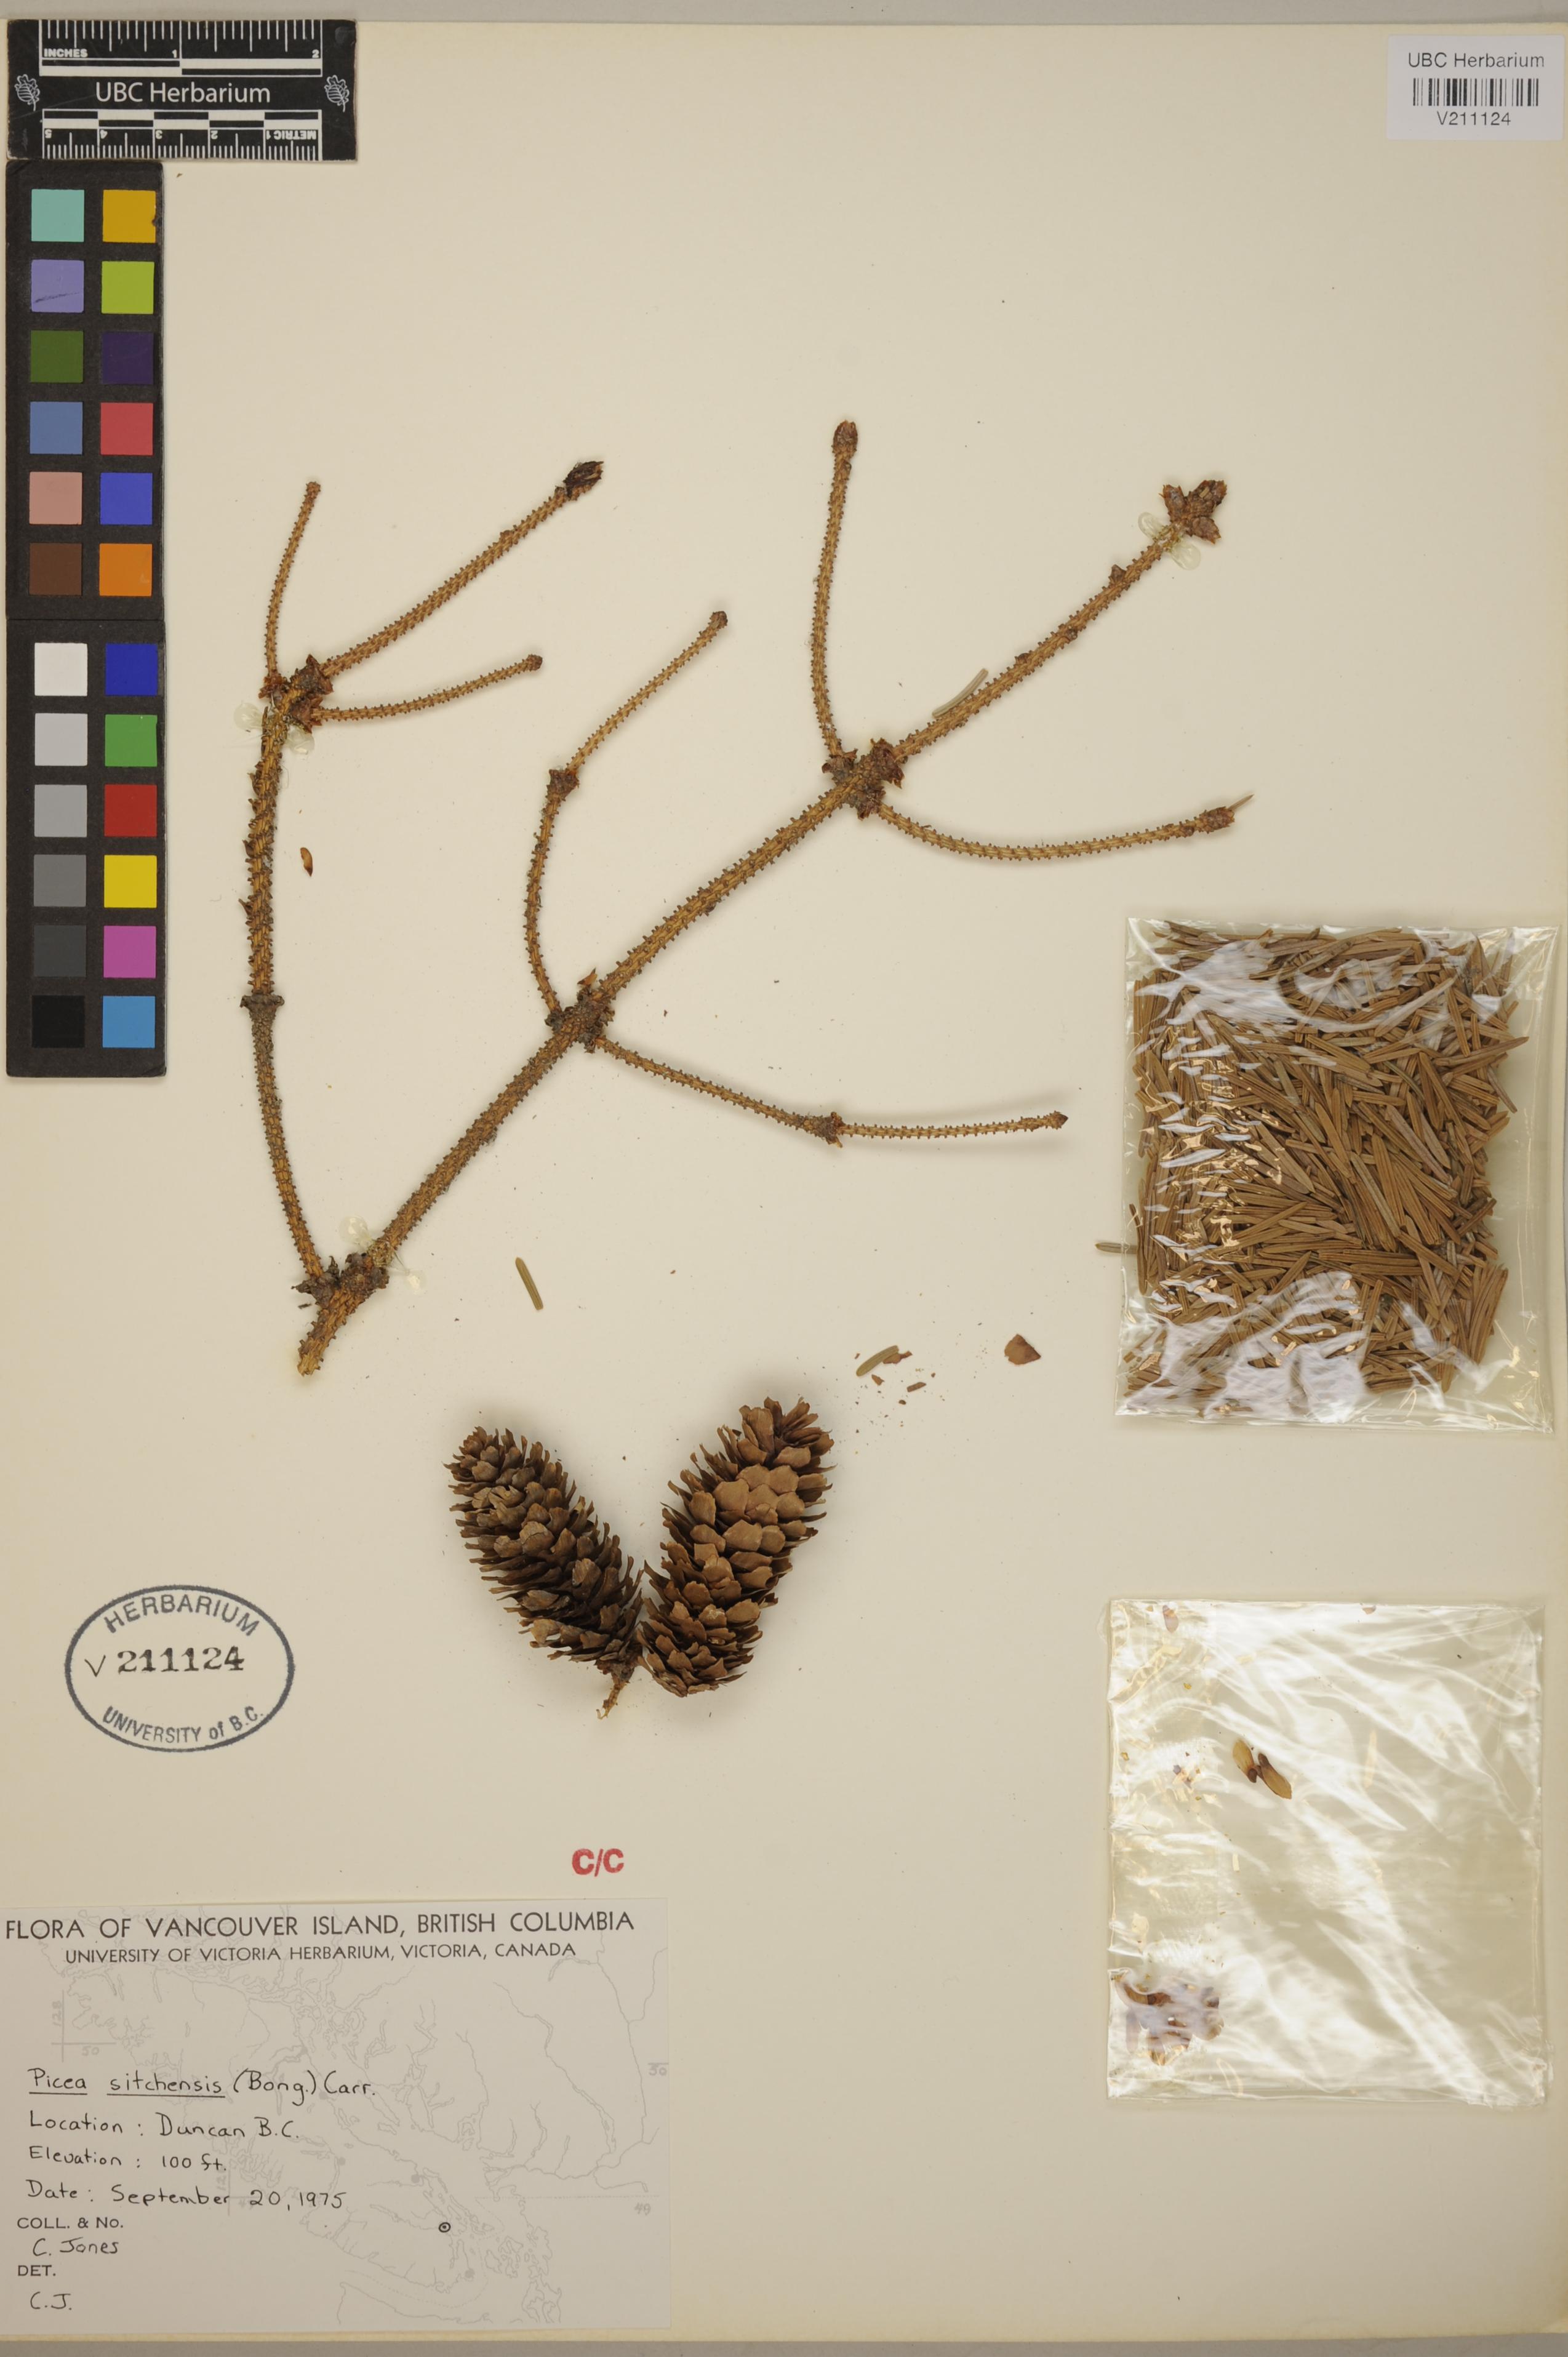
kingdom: Plantae
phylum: Tracheophyta
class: Pinopsida
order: Pinales
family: Pinaceae
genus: Picea
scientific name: Picea sitchensis
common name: Sitka spruce
